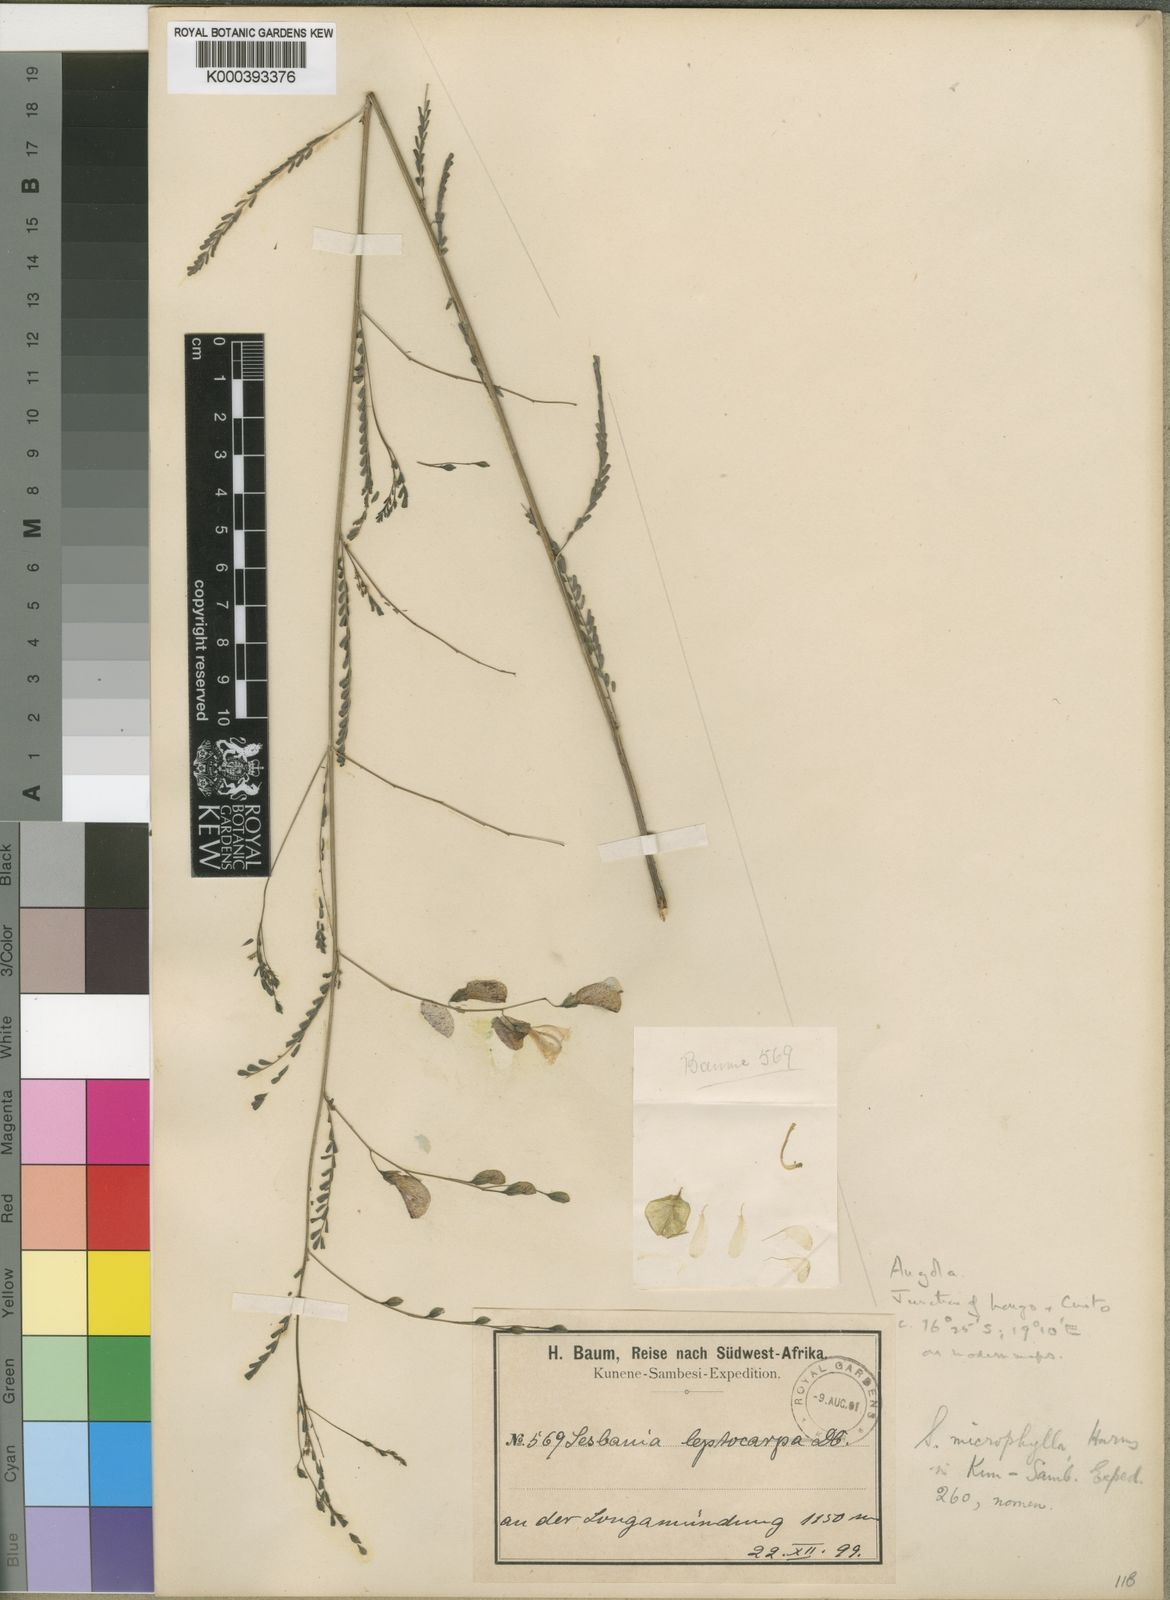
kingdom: Plantae
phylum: Tracheophyta
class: Magnoliopsida
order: Fabales
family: Fabaceae
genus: Sesbania
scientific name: Sesbania microphylla
